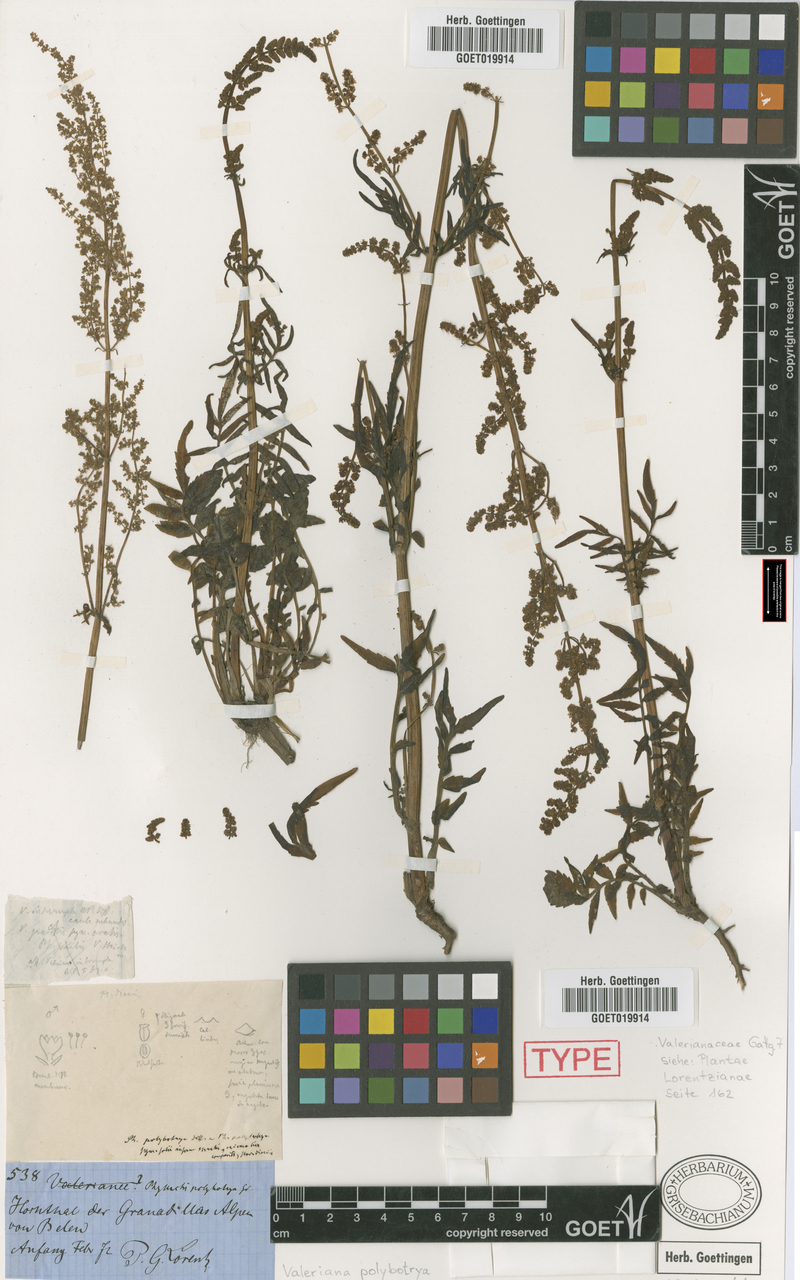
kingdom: Plantae
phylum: Tracheophyta
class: Magnoliopsida
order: Dipsacales
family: Caprifoliaceae
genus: Valeriana
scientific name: Valeriana polybotrya
